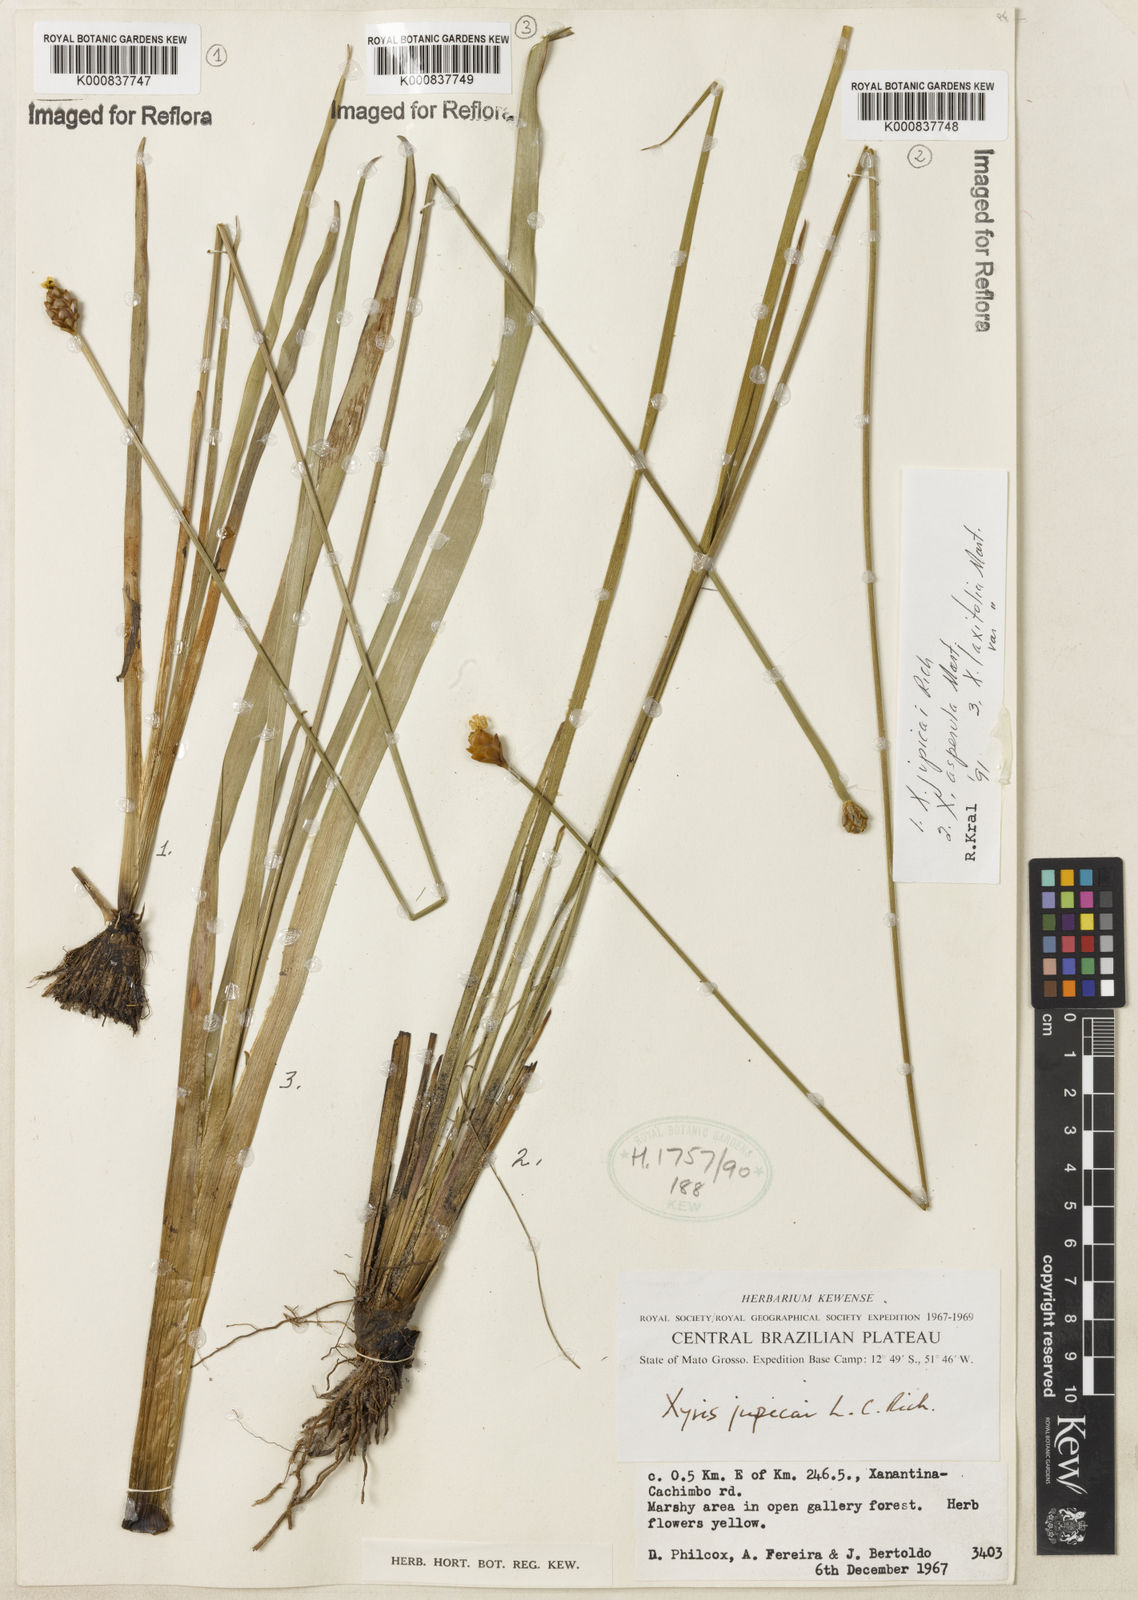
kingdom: Plantae
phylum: Tracheophyta
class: Liliopsida
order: Poales
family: Xyridaceae
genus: Xyris
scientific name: Xyris jupicai
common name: Richard's yelloweyed grass
